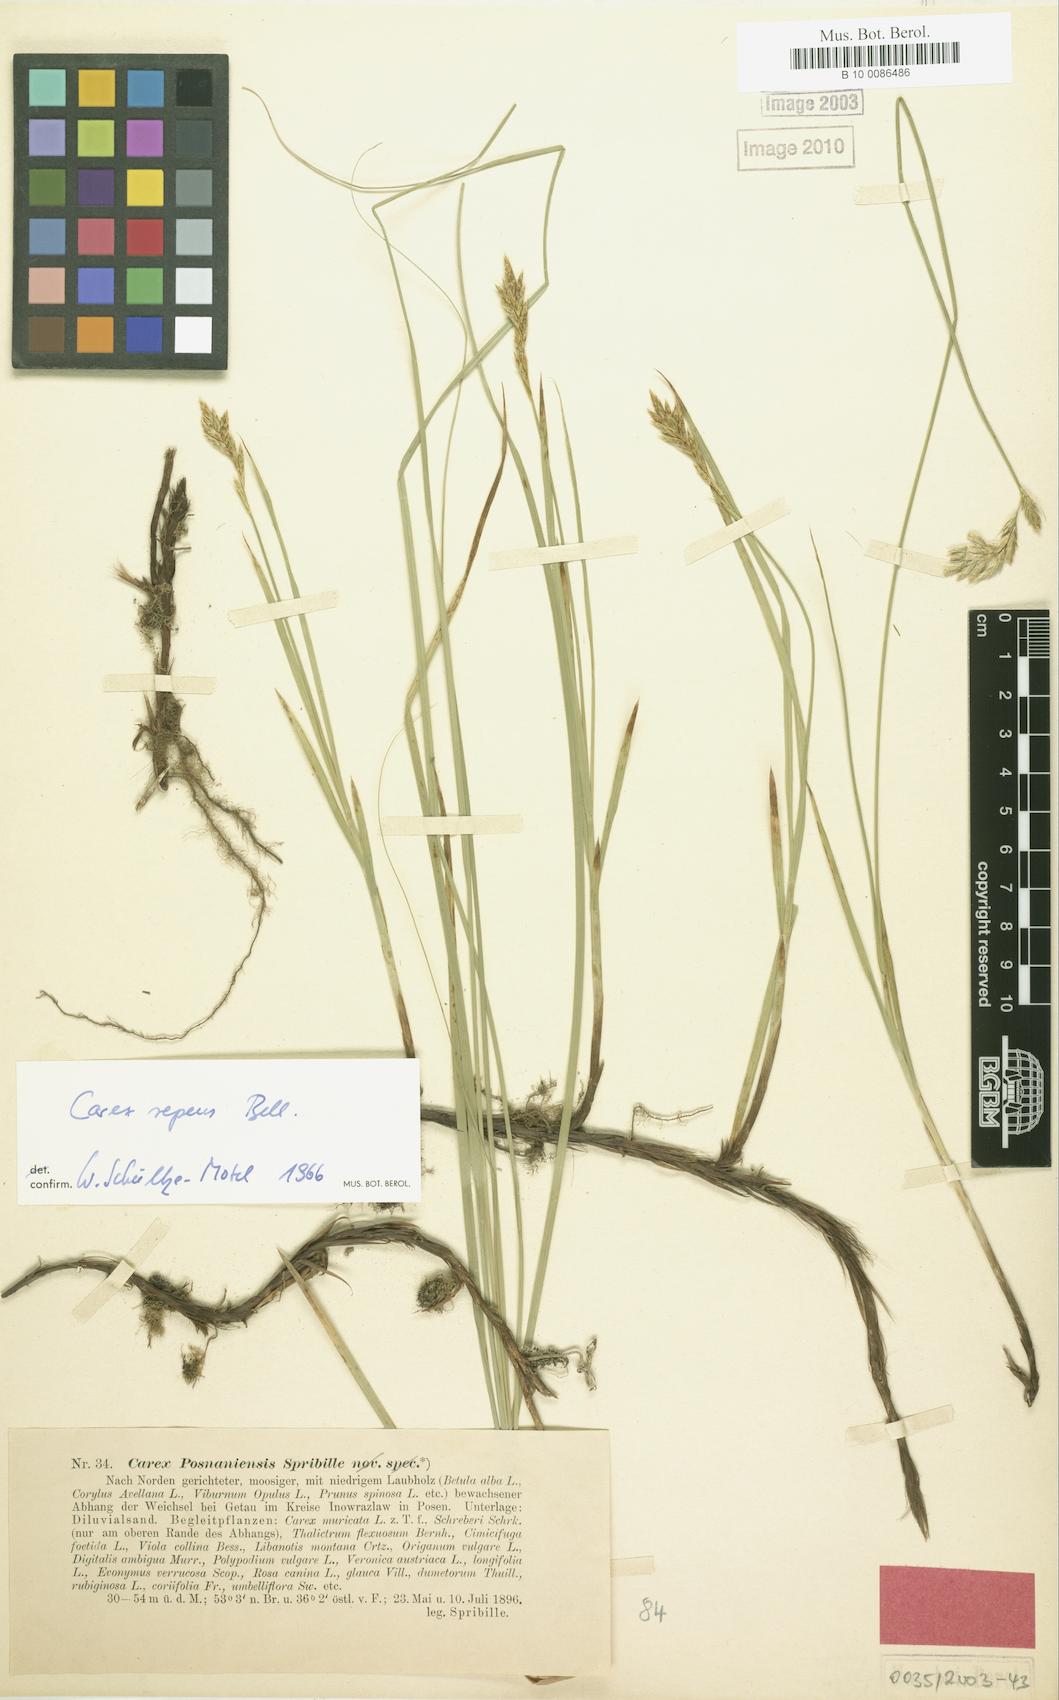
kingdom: Plantae
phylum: Tracheophyta
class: Liliopsida
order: Poales
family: Cyperaceae
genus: Carex
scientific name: Carex repens
